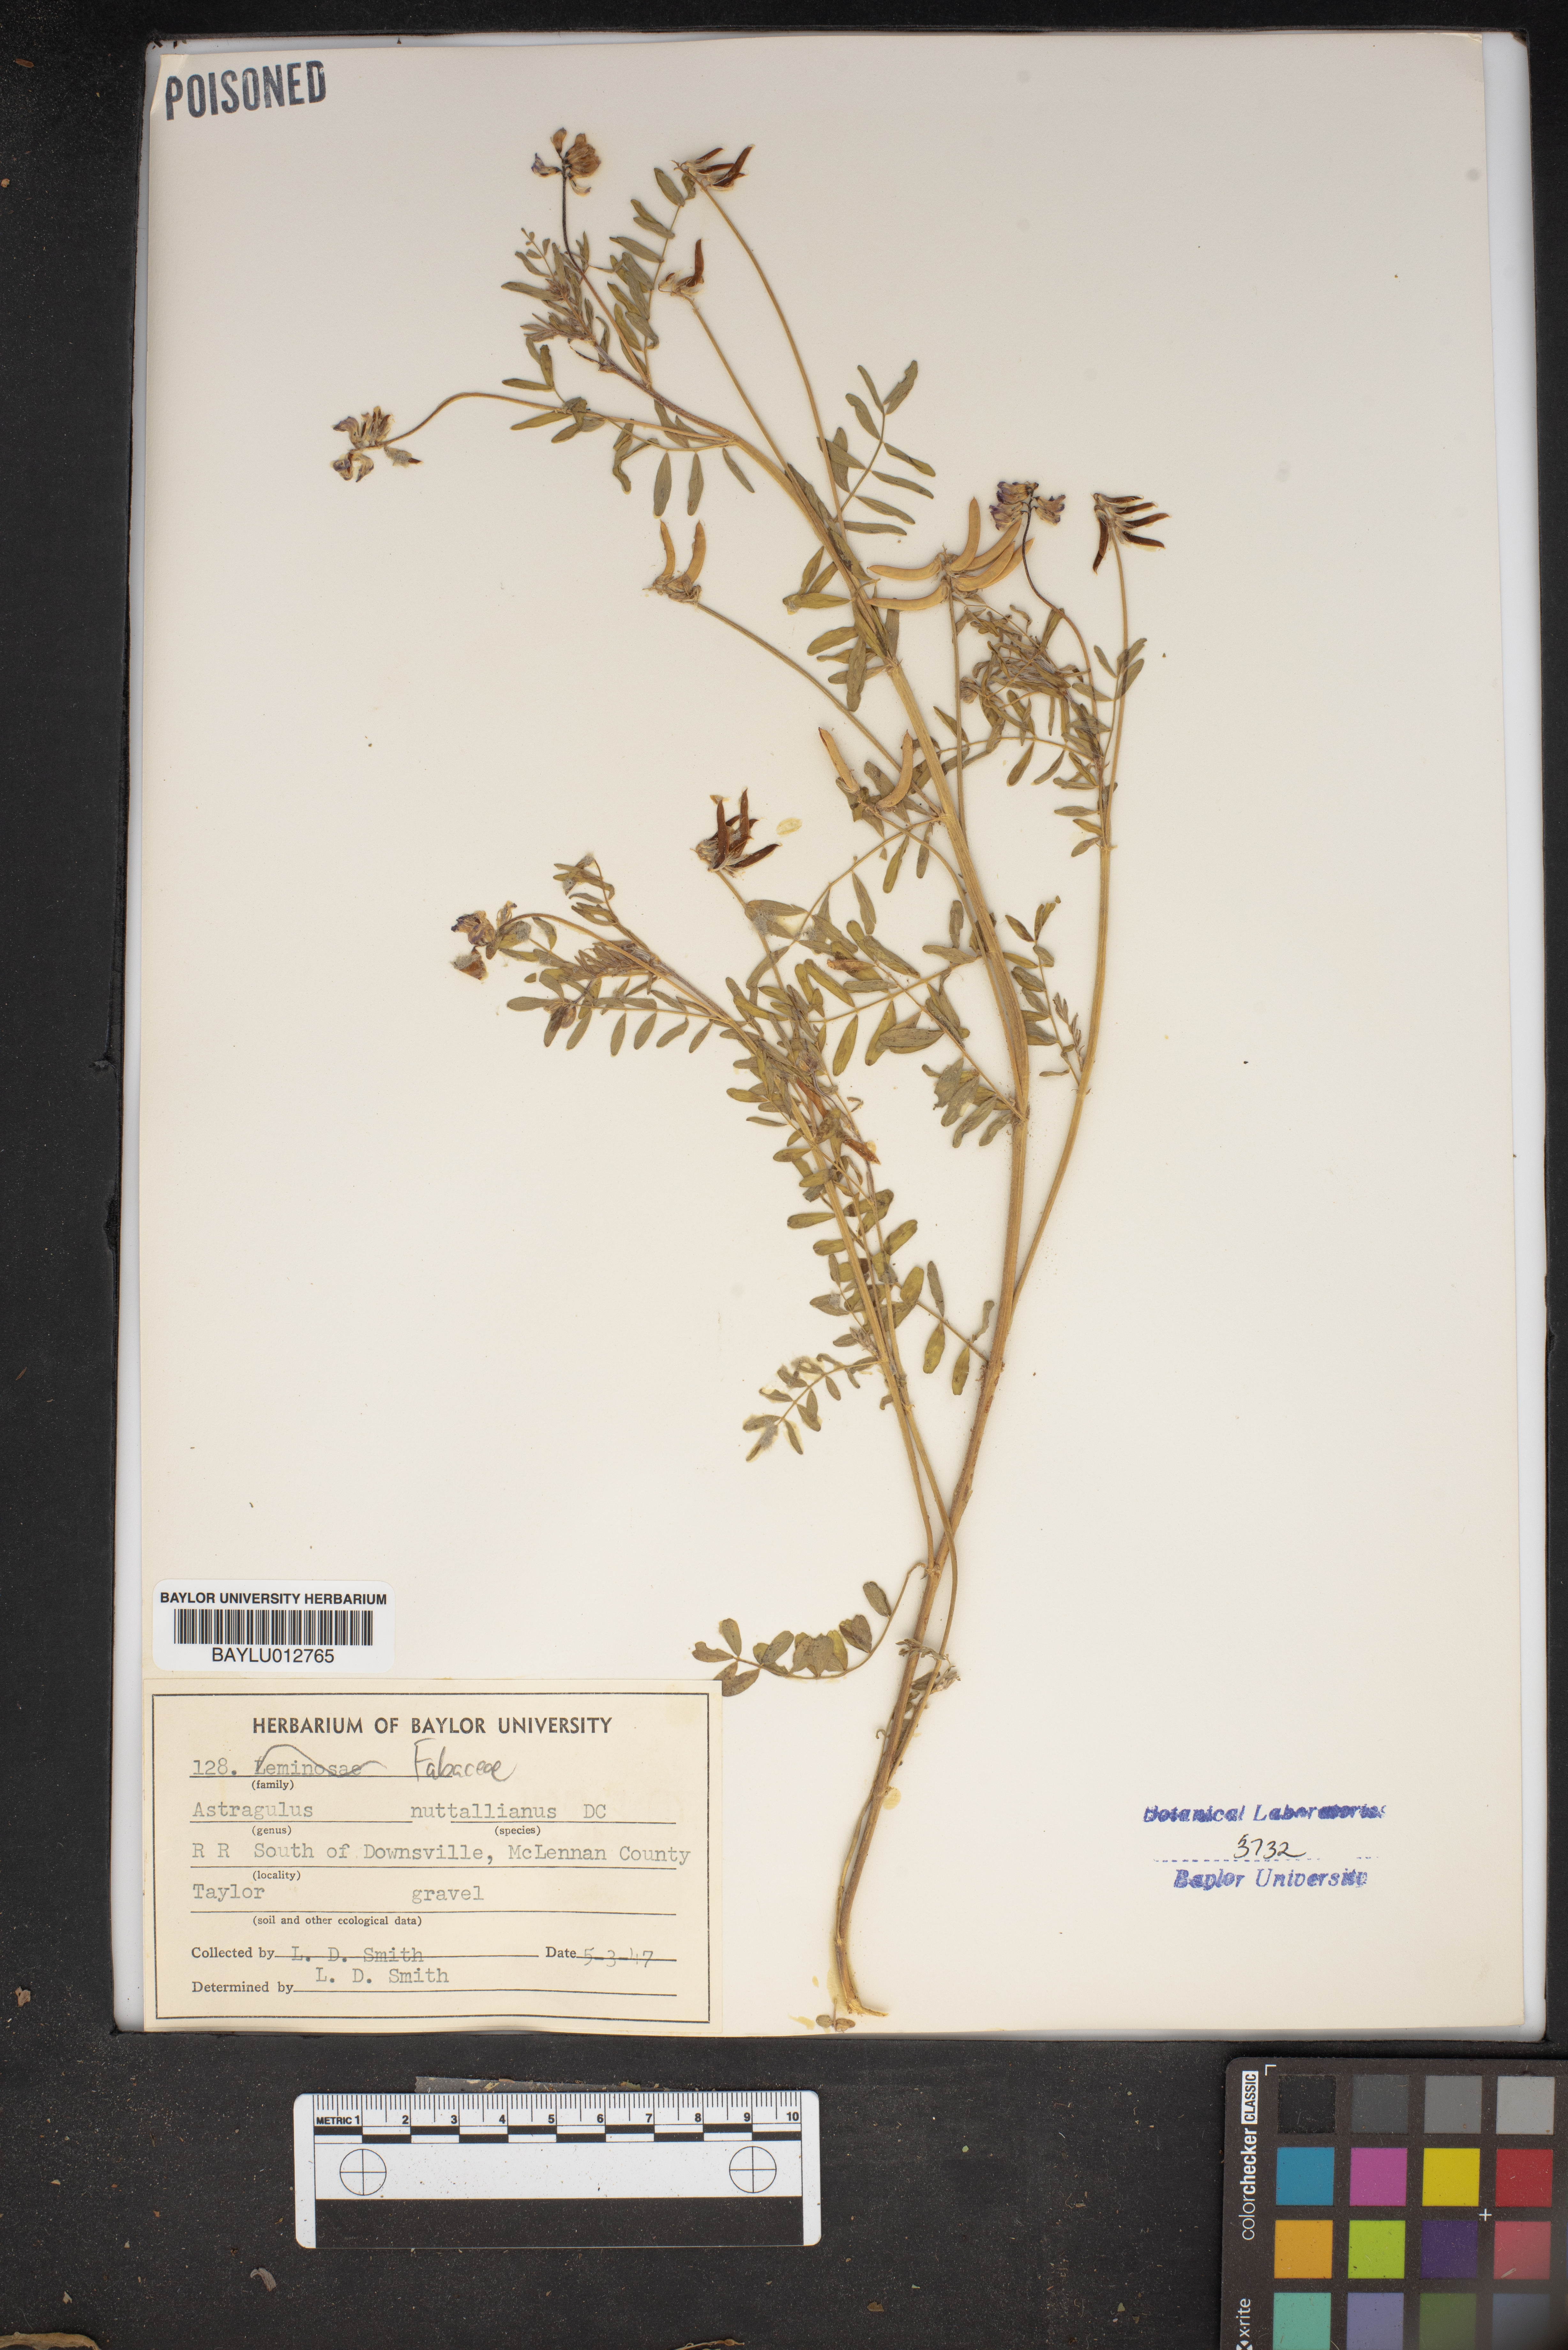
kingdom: Plantae
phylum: Tracheophyta
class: Magnoliopsida
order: Fabales
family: Fabaceae
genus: Astragalus
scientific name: Astragalus nuttallianus
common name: Smallflowered milkvetch
